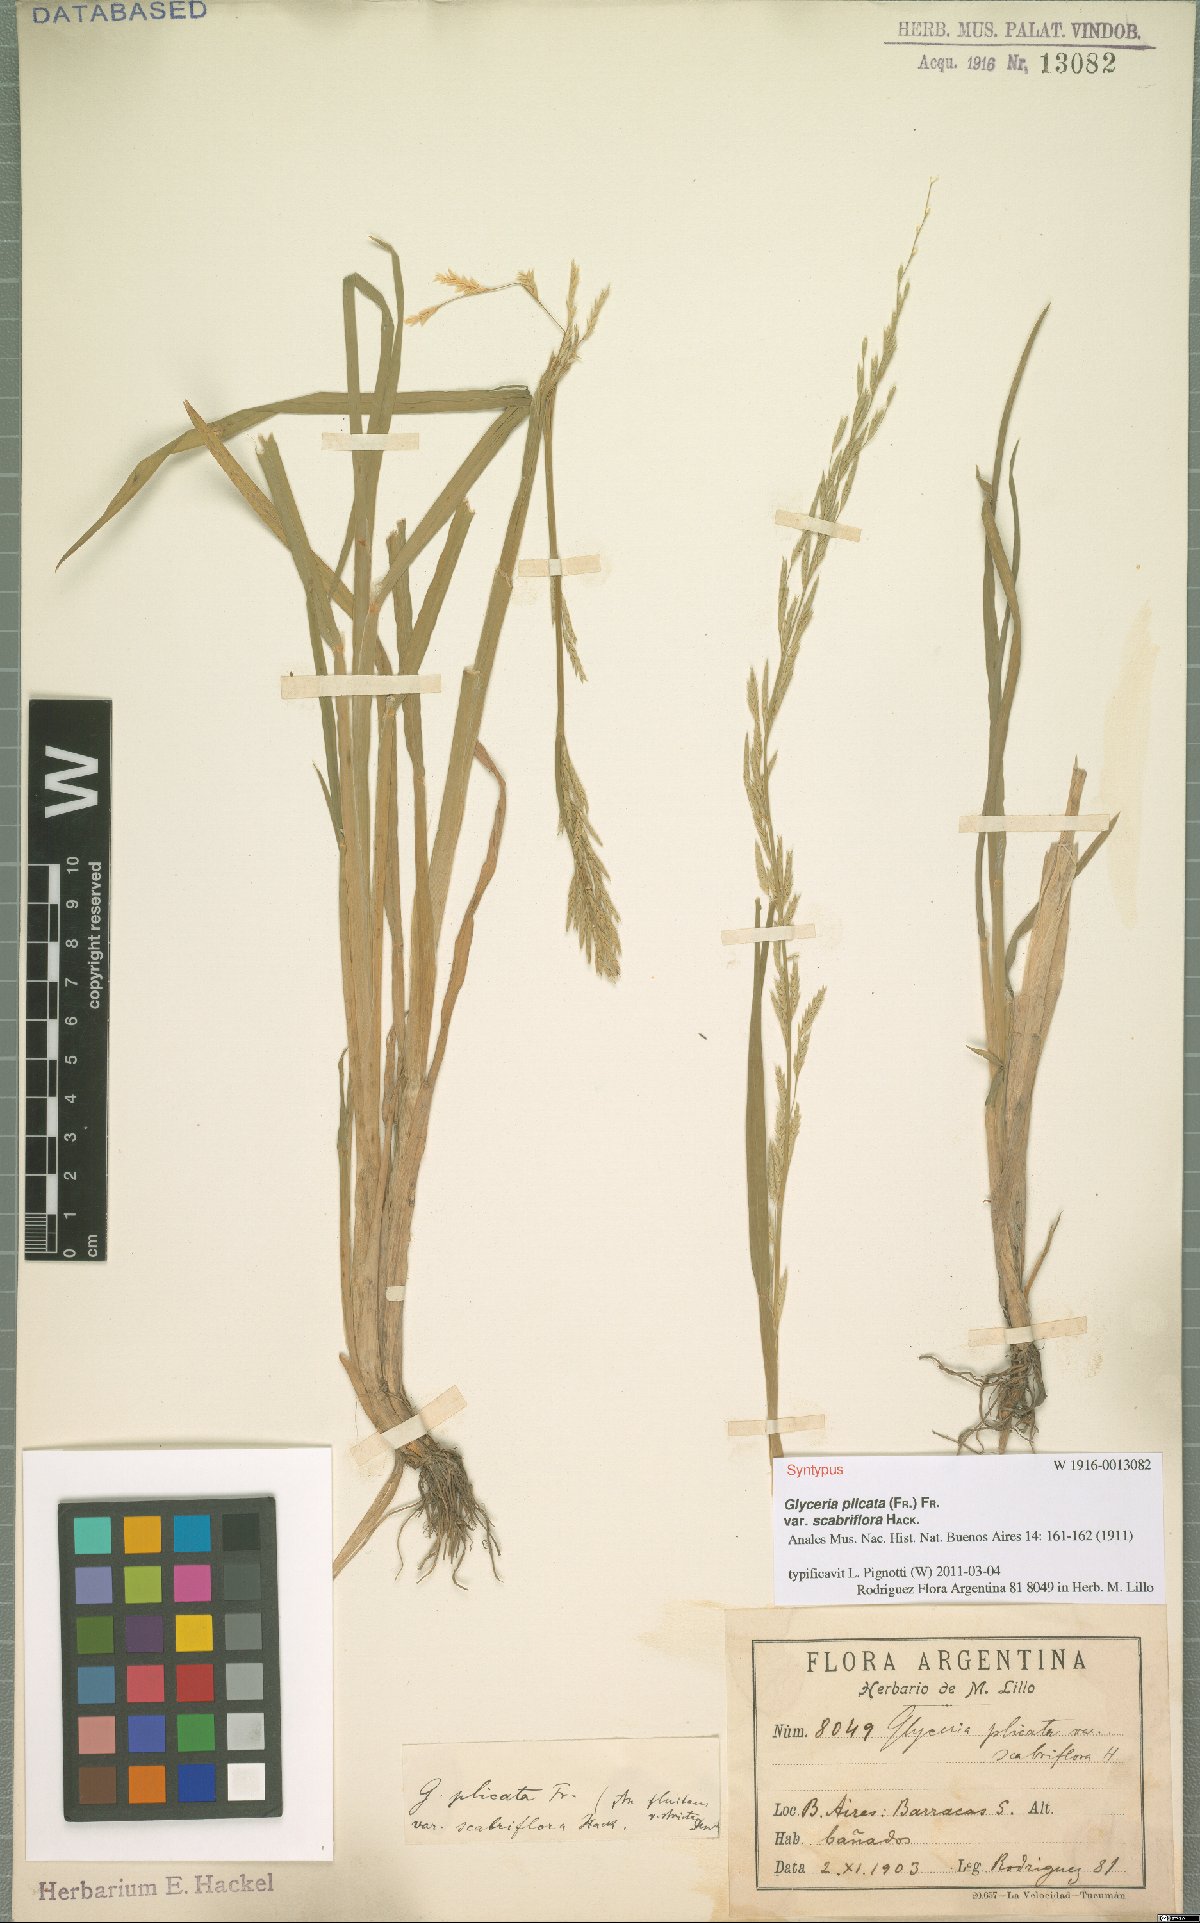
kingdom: Plantae
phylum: Tracheophyta
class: Liliopsida
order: Poales
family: Poaceae
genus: Glyceria
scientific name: Glyceria notata
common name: Plicate sweet-grass
